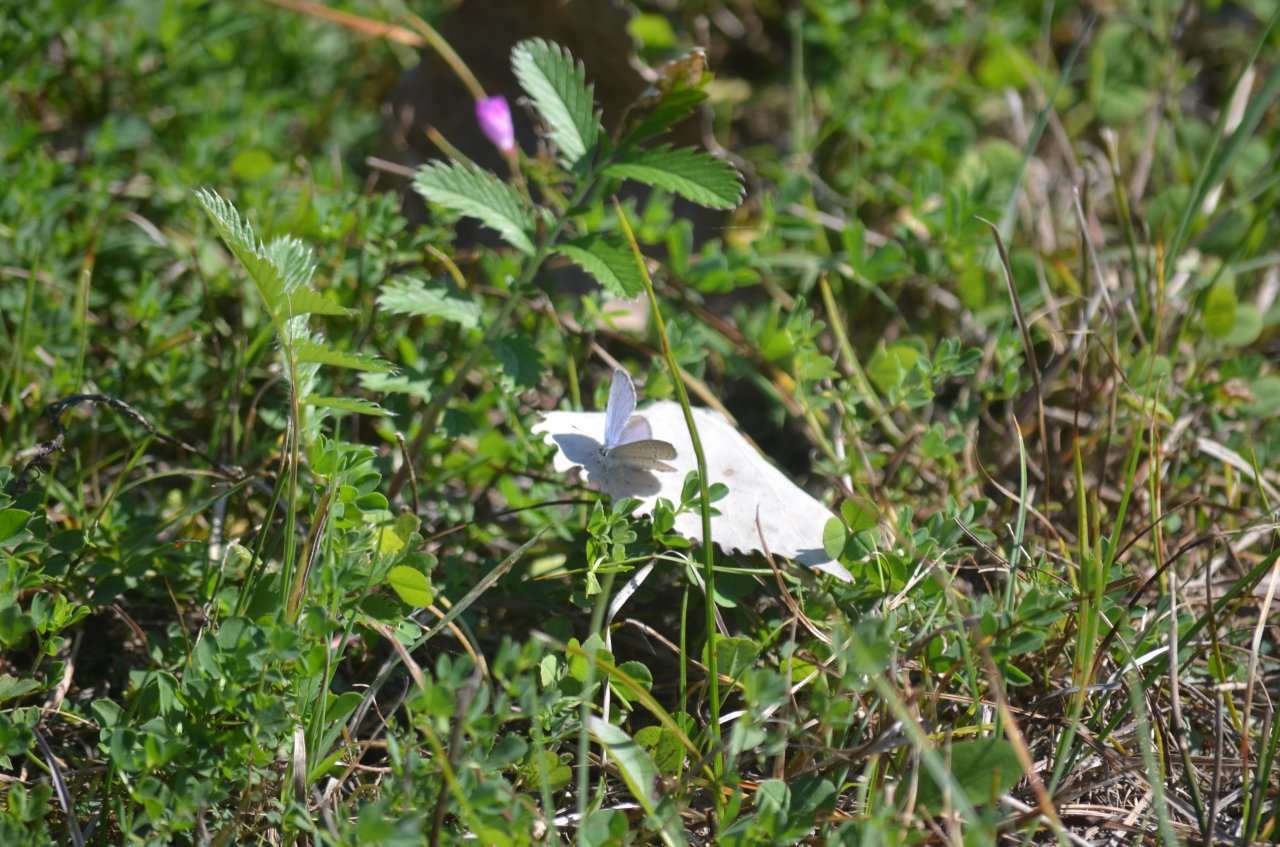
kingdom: Animalia
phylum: Arthropoda
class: Insecta
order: Lepidoptera
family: Lycaenidae
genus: Elkalyce
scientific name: Elkalyce comyntas
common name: Eastern Tailed-Blue
